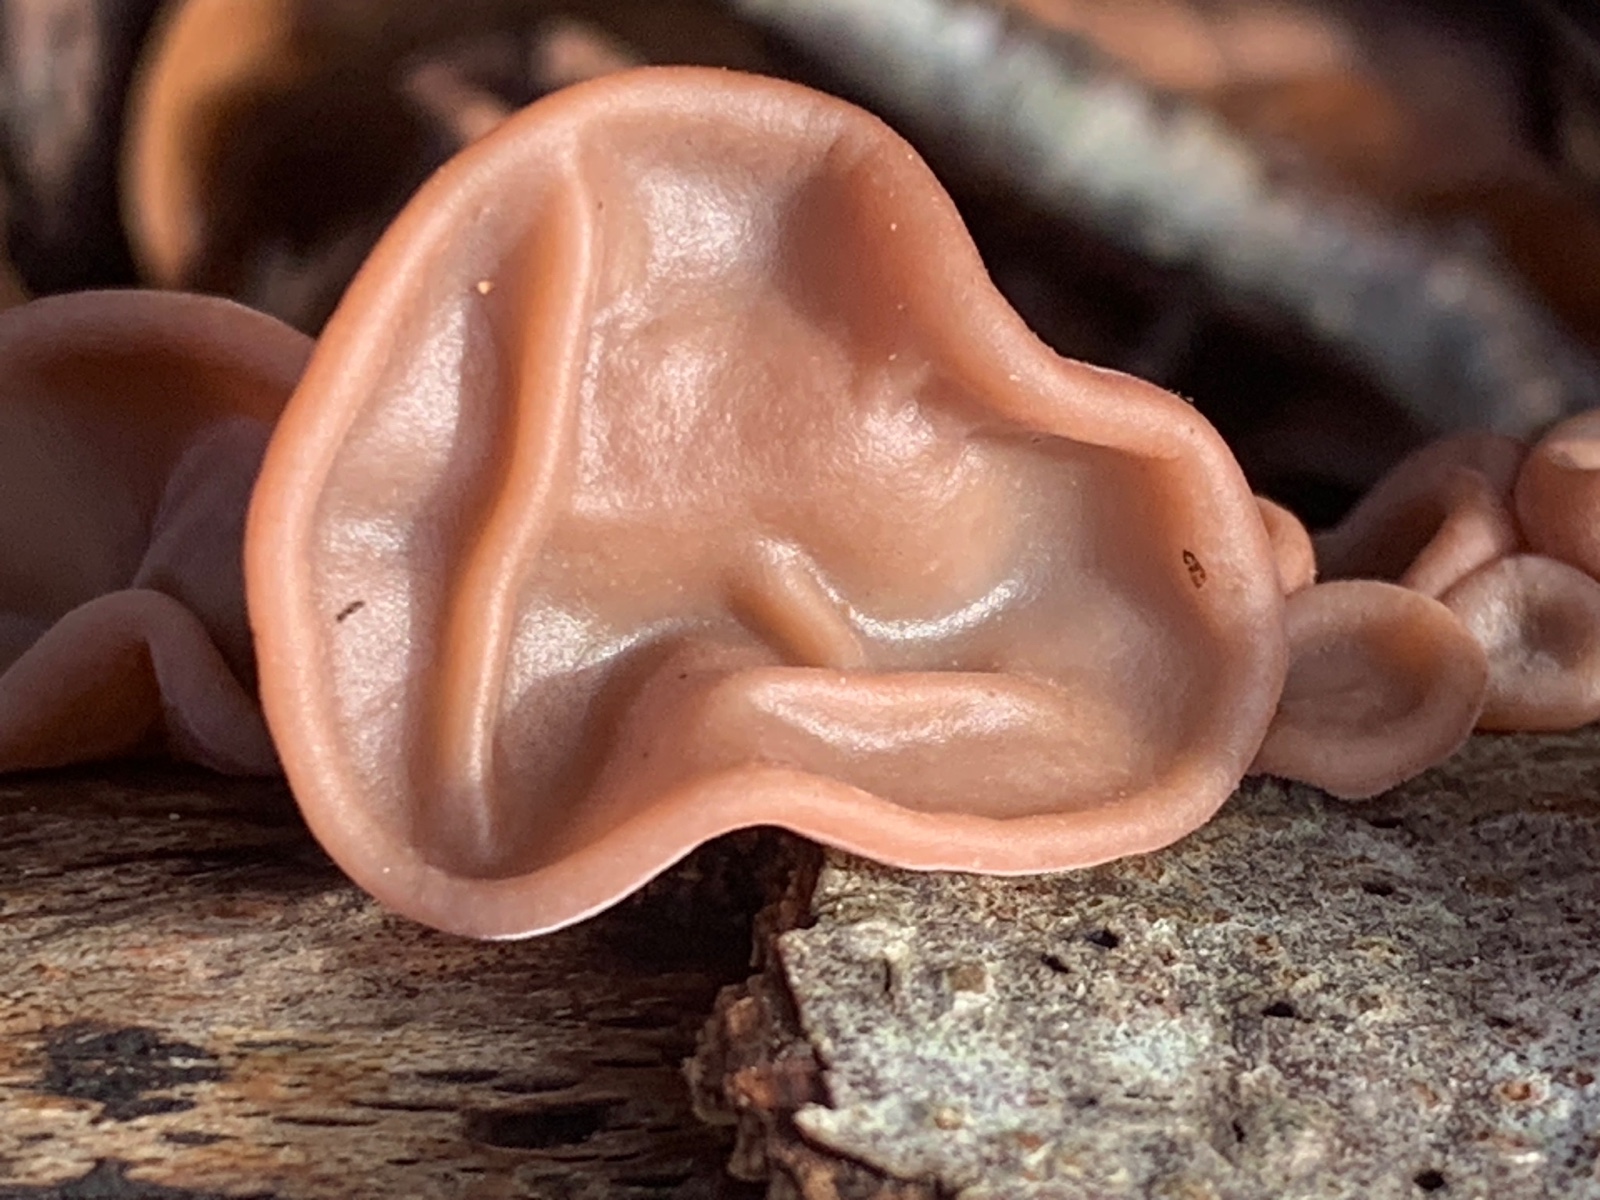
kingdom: Fungi
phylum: Basidiomycota
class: Agaricomycetes
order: Auriculariales
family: Auriculariaceae
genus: Auricularia
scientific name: Auricularia auricula-judae
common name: almindelig judasøre
